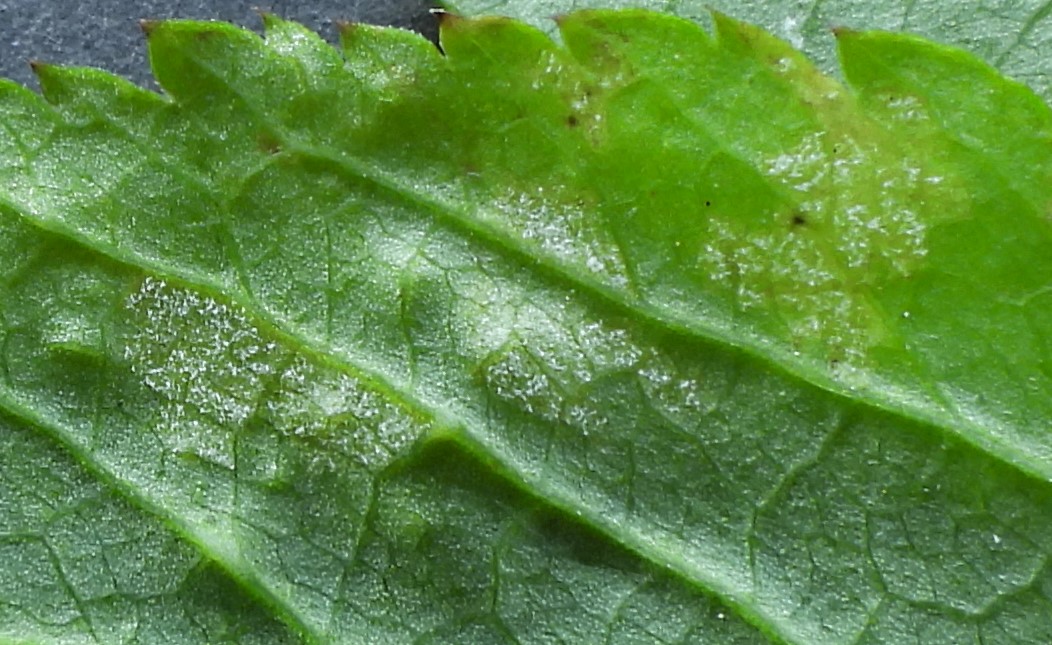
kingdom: Chromista
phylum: Oomycota
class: Peronosporea
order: Peronosporales
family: Peronosporaceae
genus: Peronospora
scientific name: Peronospora crustosa
